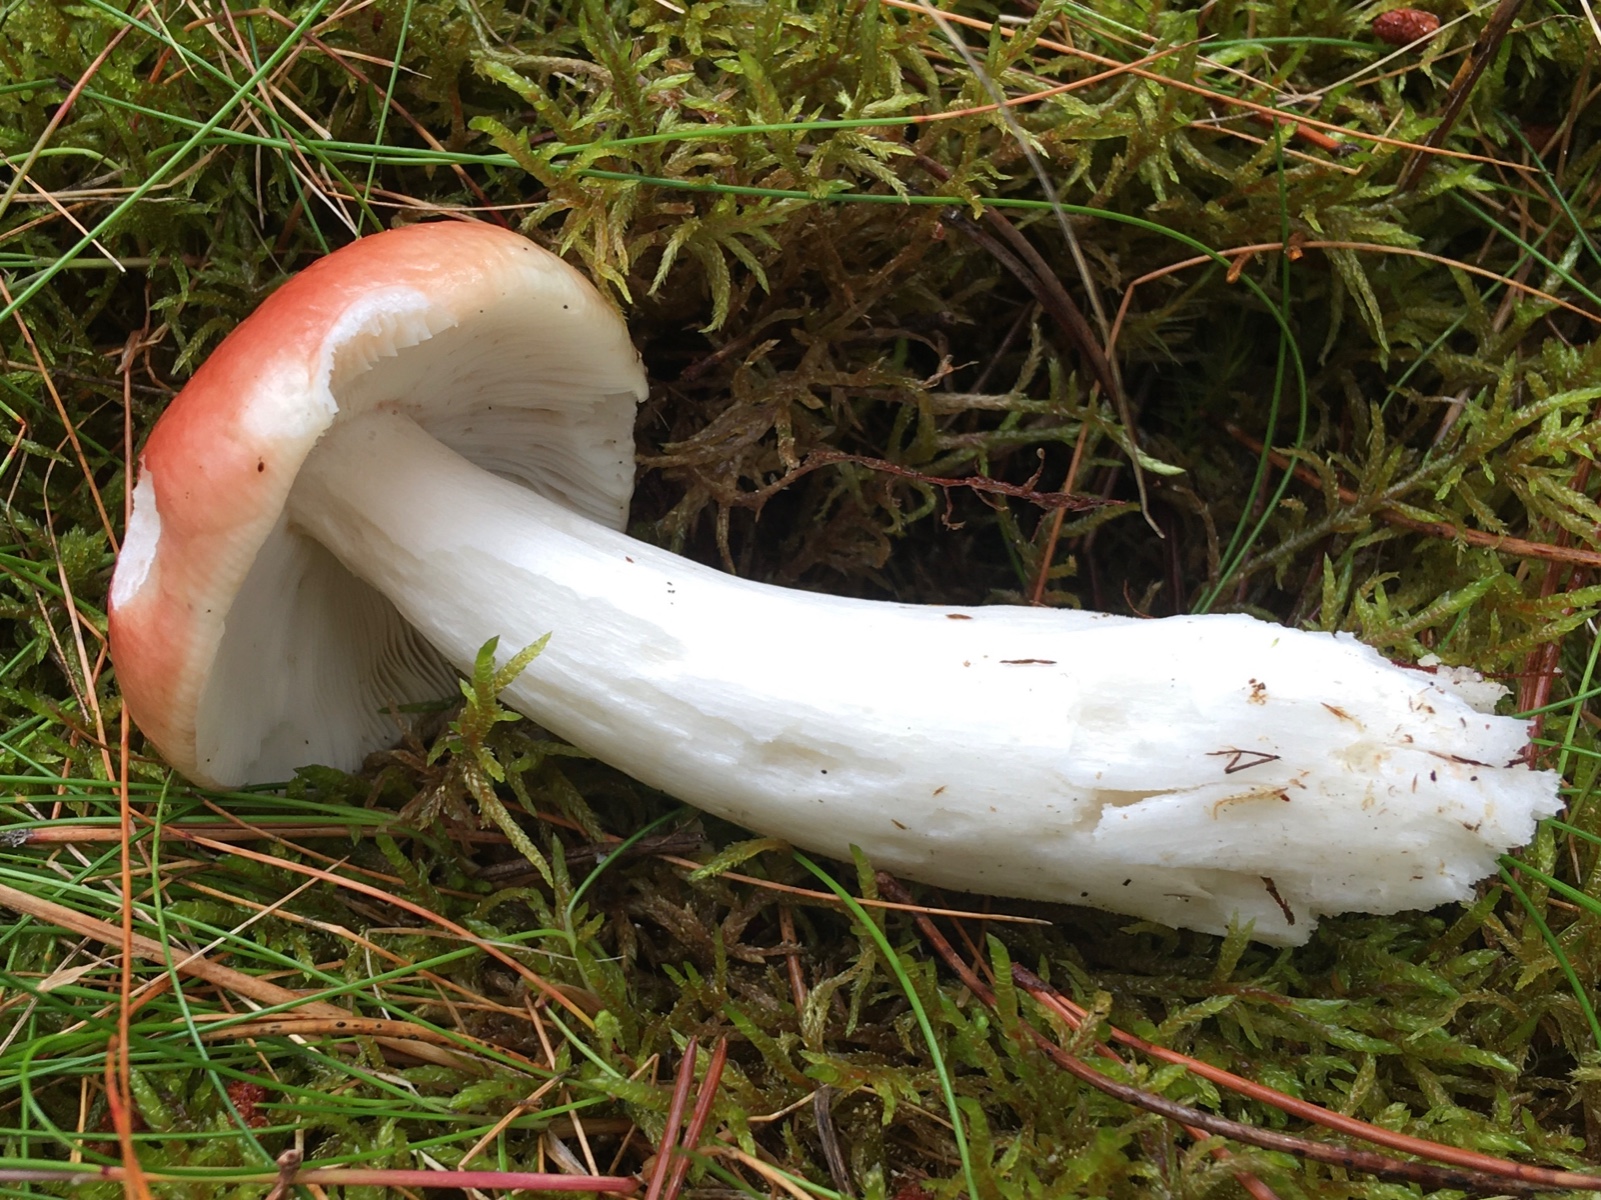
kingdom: Fungi
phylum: Basidiomycota
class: Agaricomycetes
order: Russulales
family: Russulaceae
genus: Russula
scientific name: Russula paludosa
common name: prægtig skørhat
